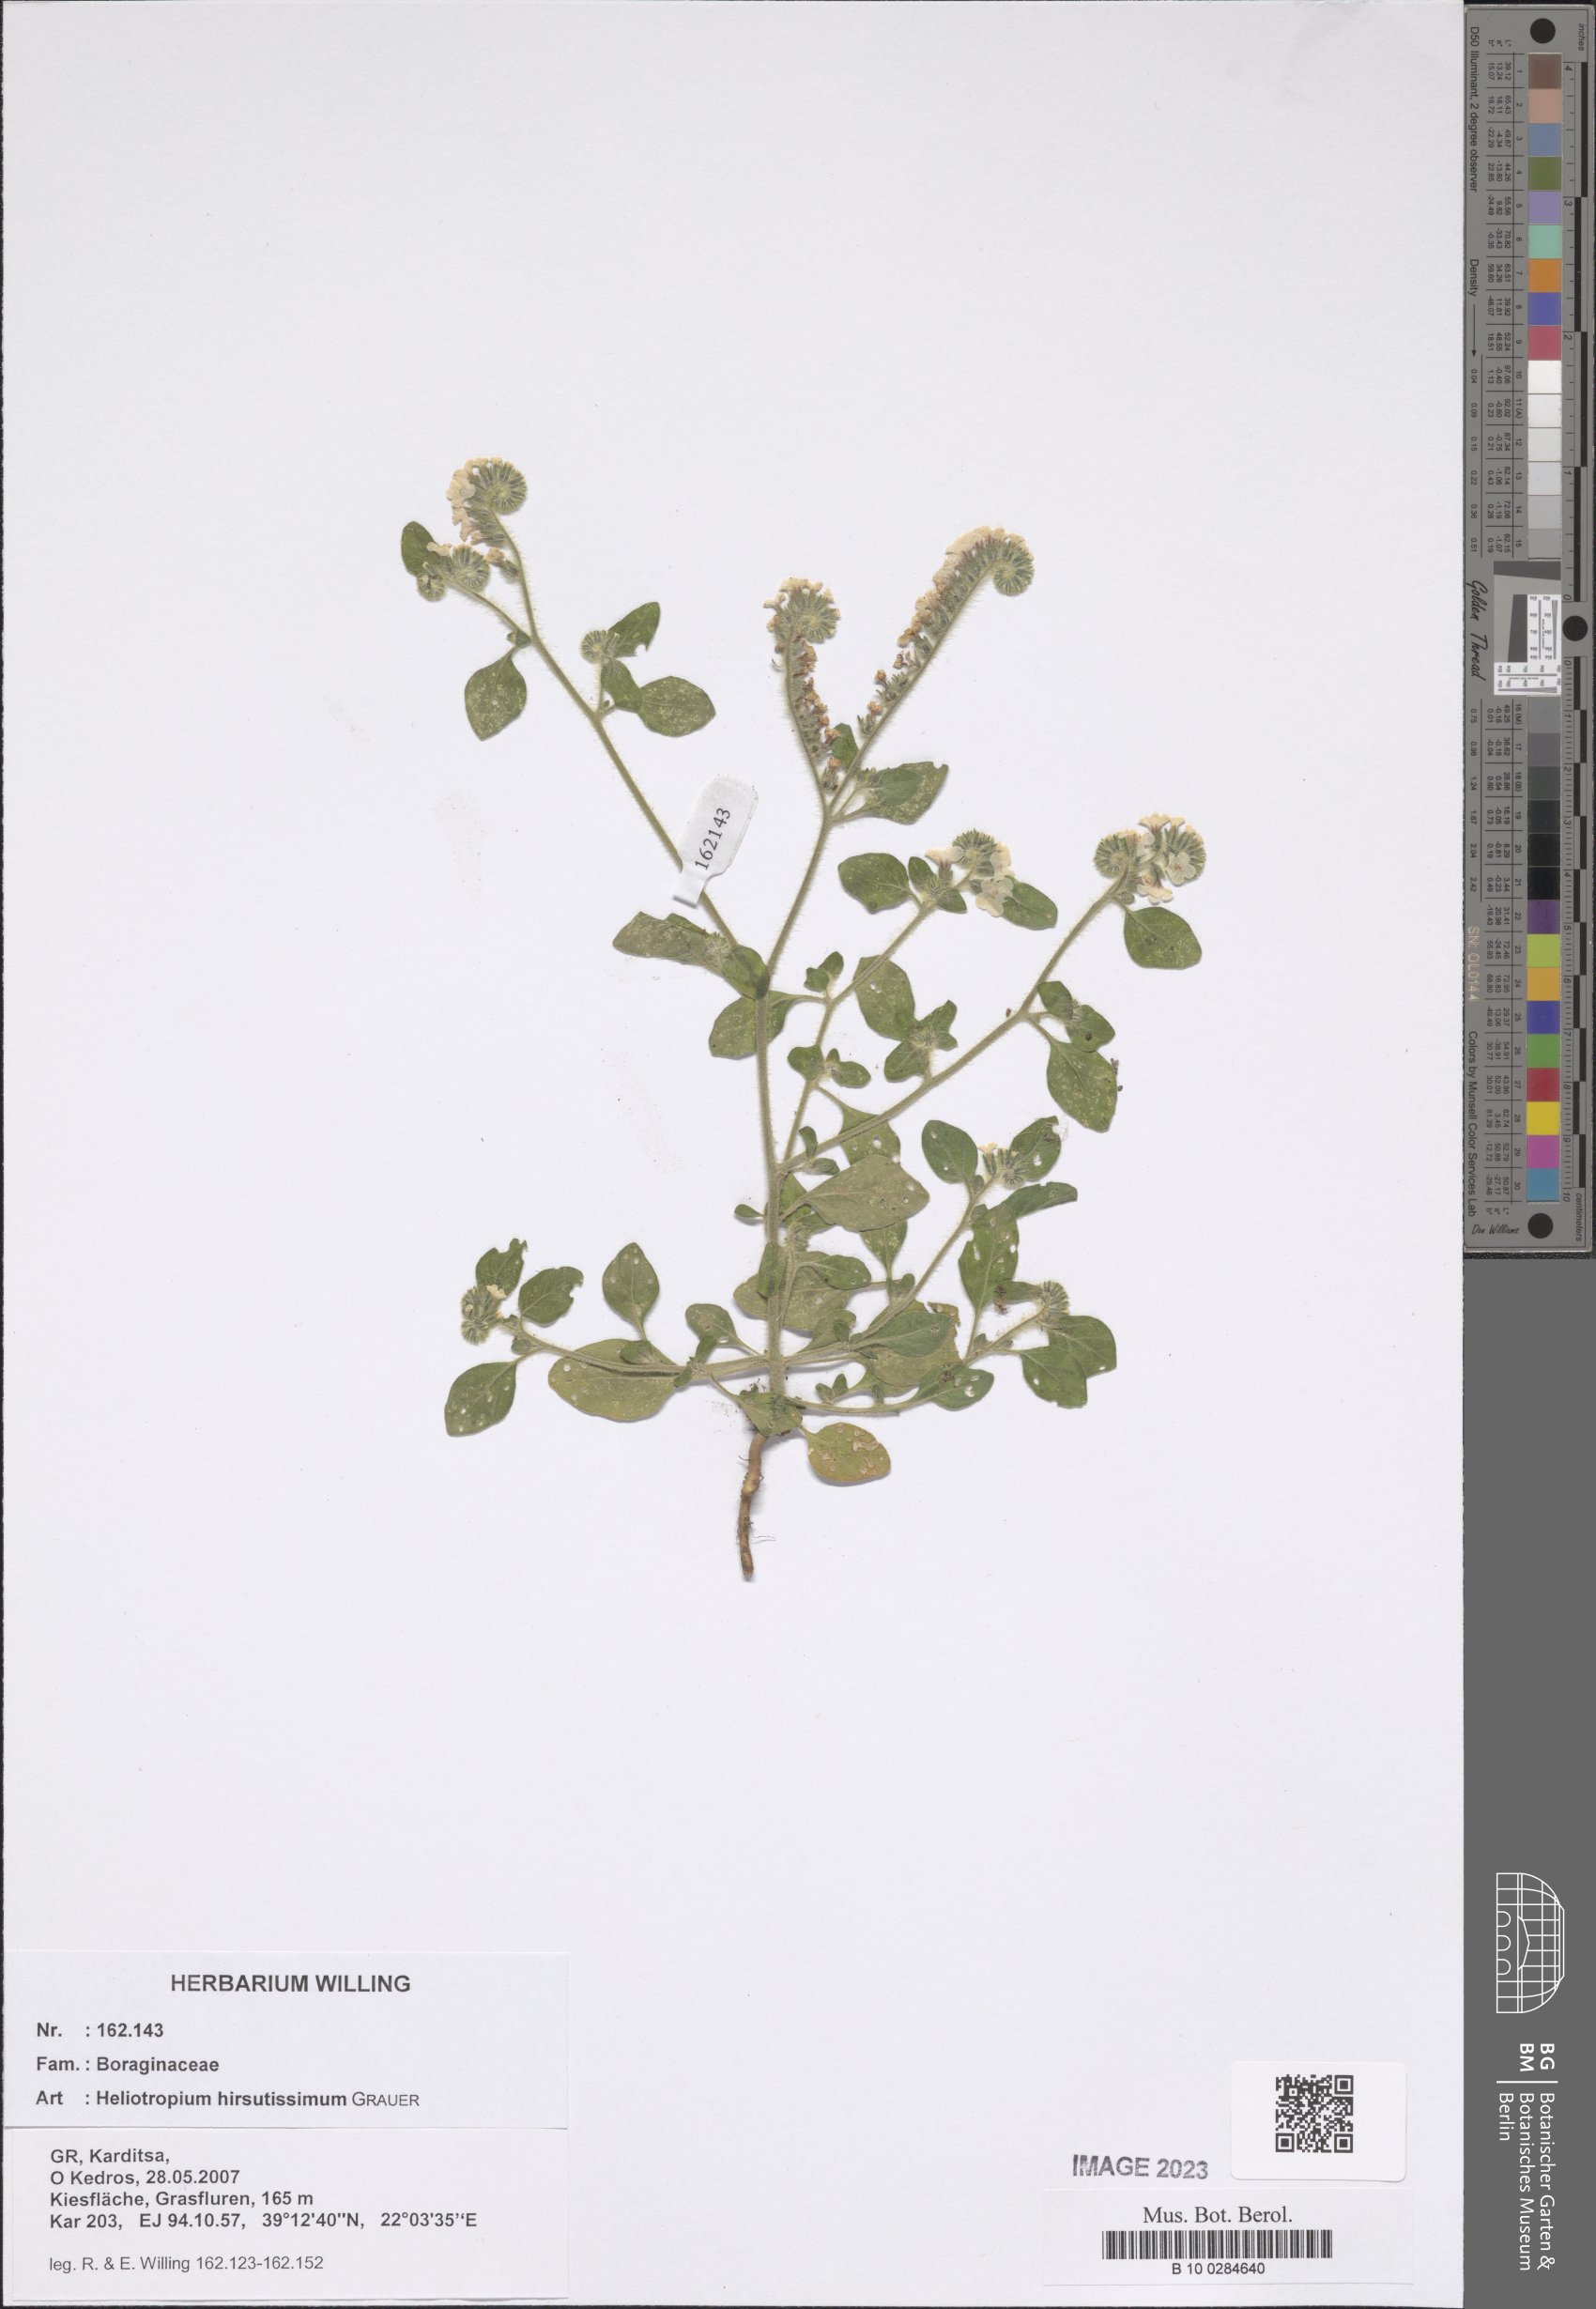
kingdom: Plantae
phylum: Tracheophyta
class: Magnoliopsida
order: Boraginales
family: Heliotropiaceae
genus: Heliotropium
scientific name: Heliotropium hirsutissimum
